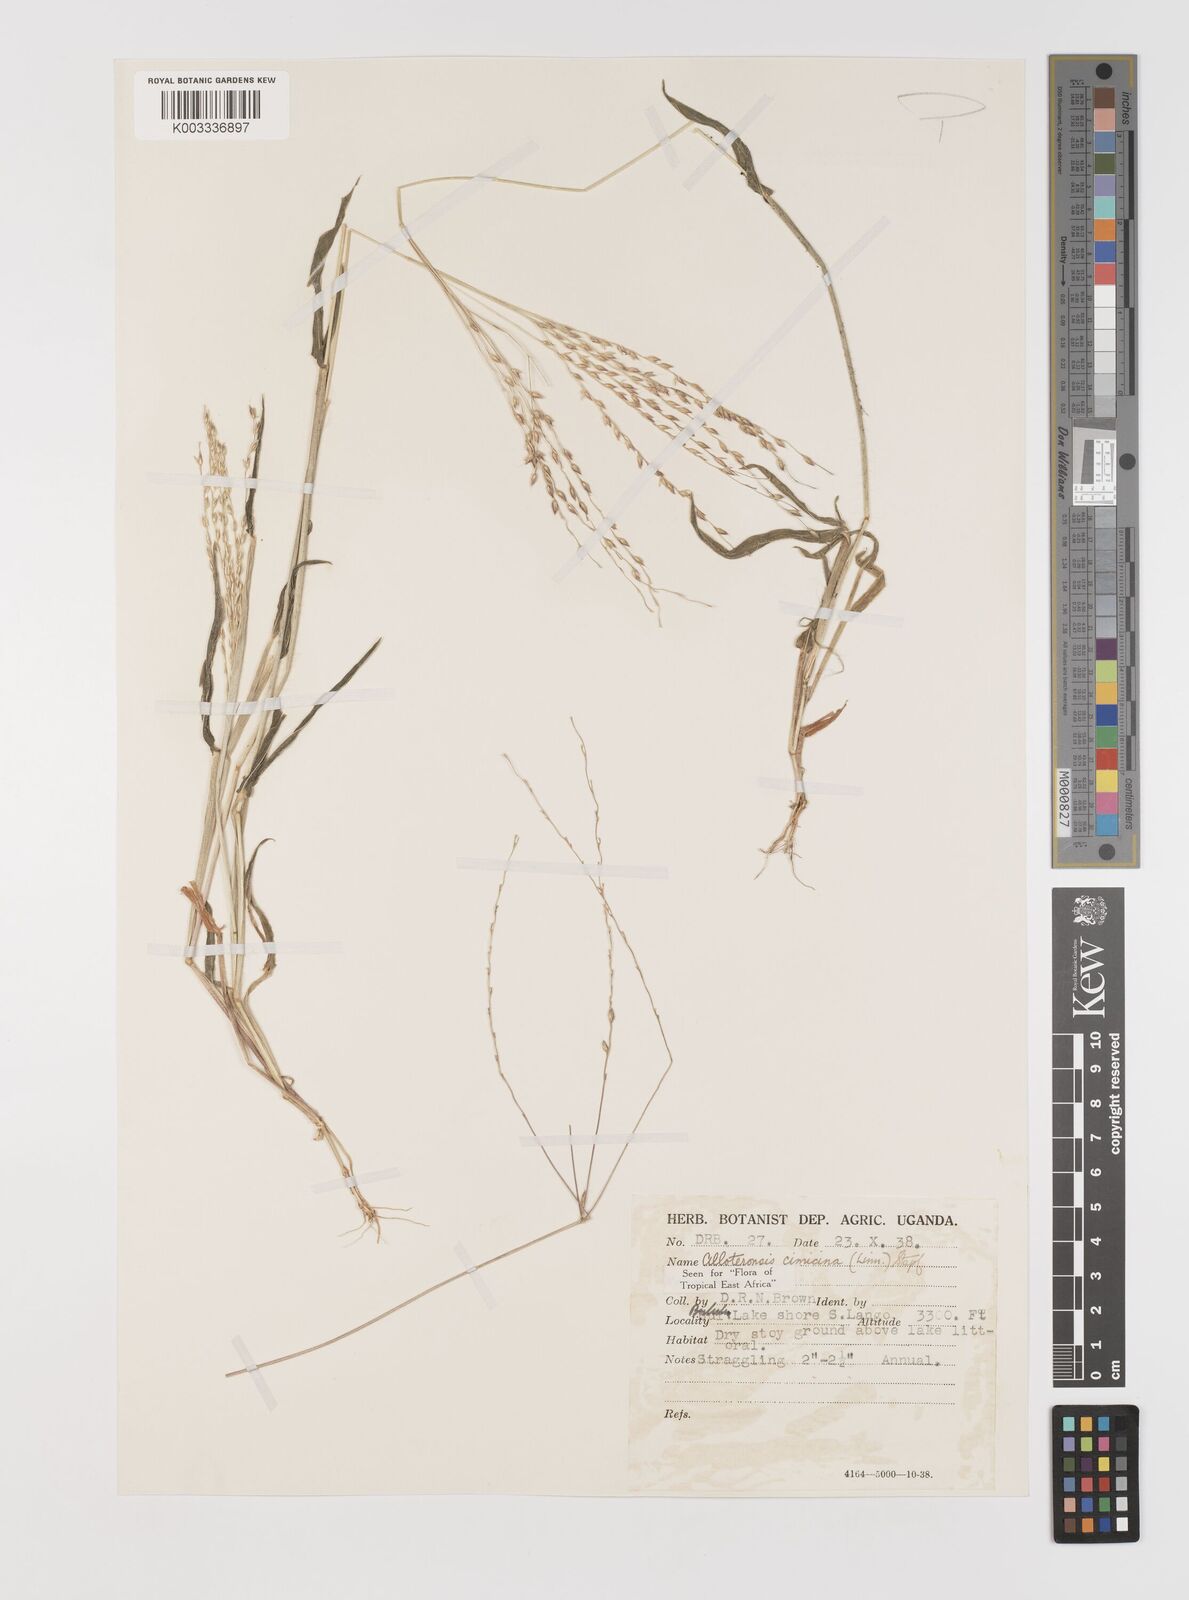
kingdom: Plantae
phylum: Tracheophyta
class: Liliopsida
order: Poales
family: Poaceae
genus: Alloteropsis
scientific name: Alloteropsis cimicina
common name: Summergrass
